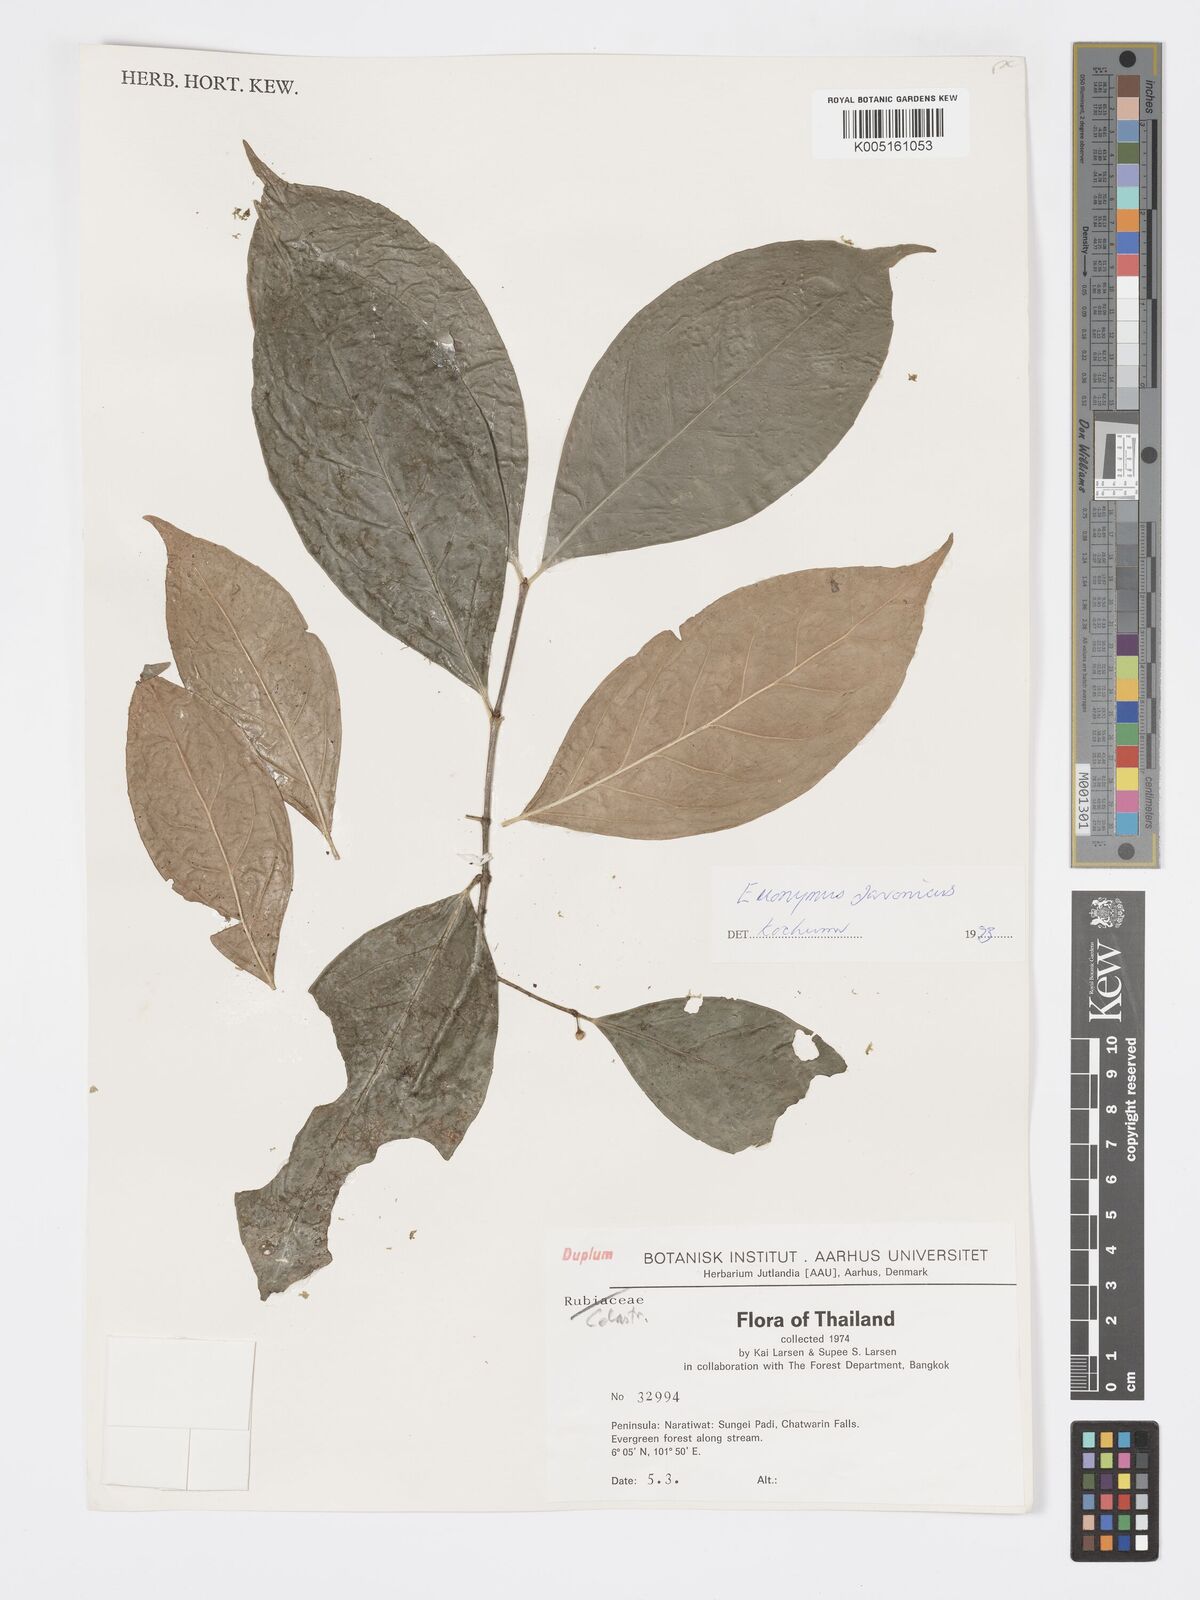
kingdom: Plantae
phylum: Tracheophyta
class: Magnoliopsida
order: Celastrales
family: Celastraceae
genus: Euonymus
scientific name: Euonymus indicus
